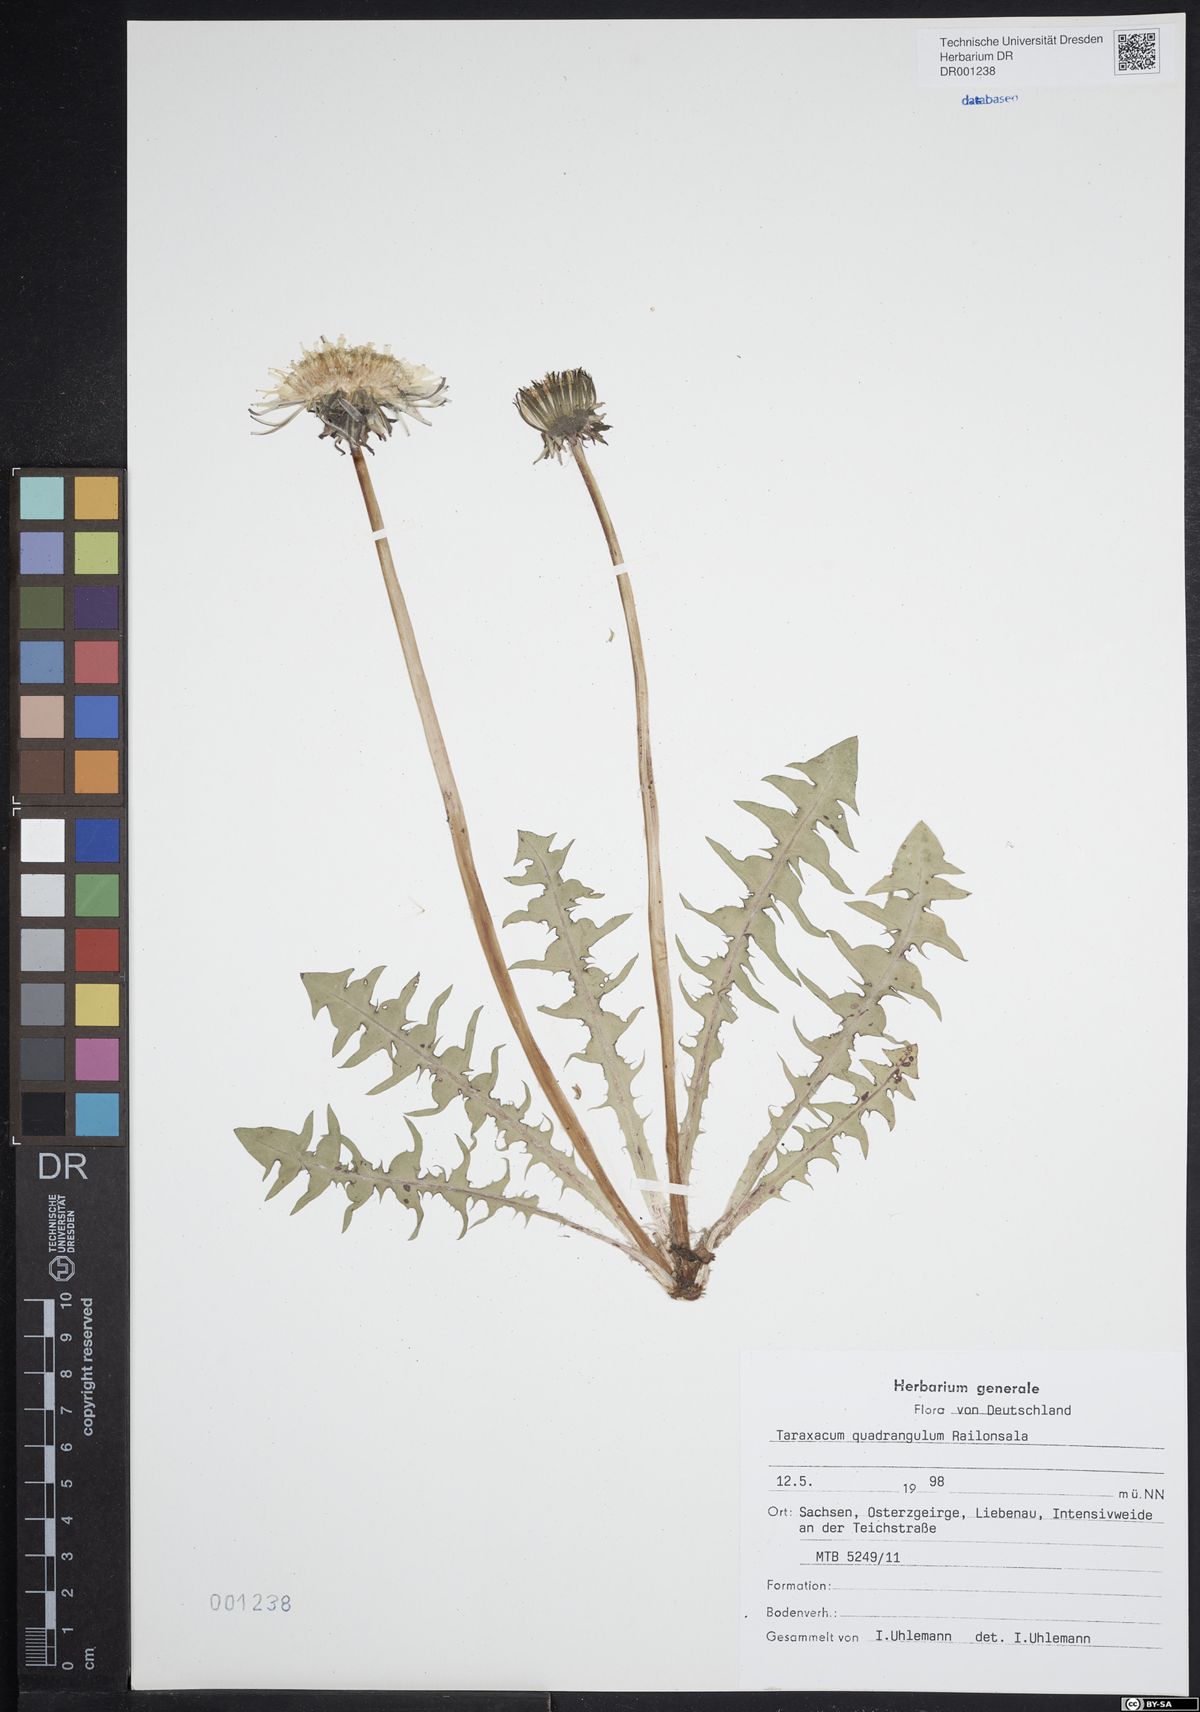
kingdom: Plantae
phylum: Tracheophyta
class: Magnoliopsida
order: Asterales
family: Asteraceae
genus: Taraxacum
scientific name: Taraxacum quadrangulum
